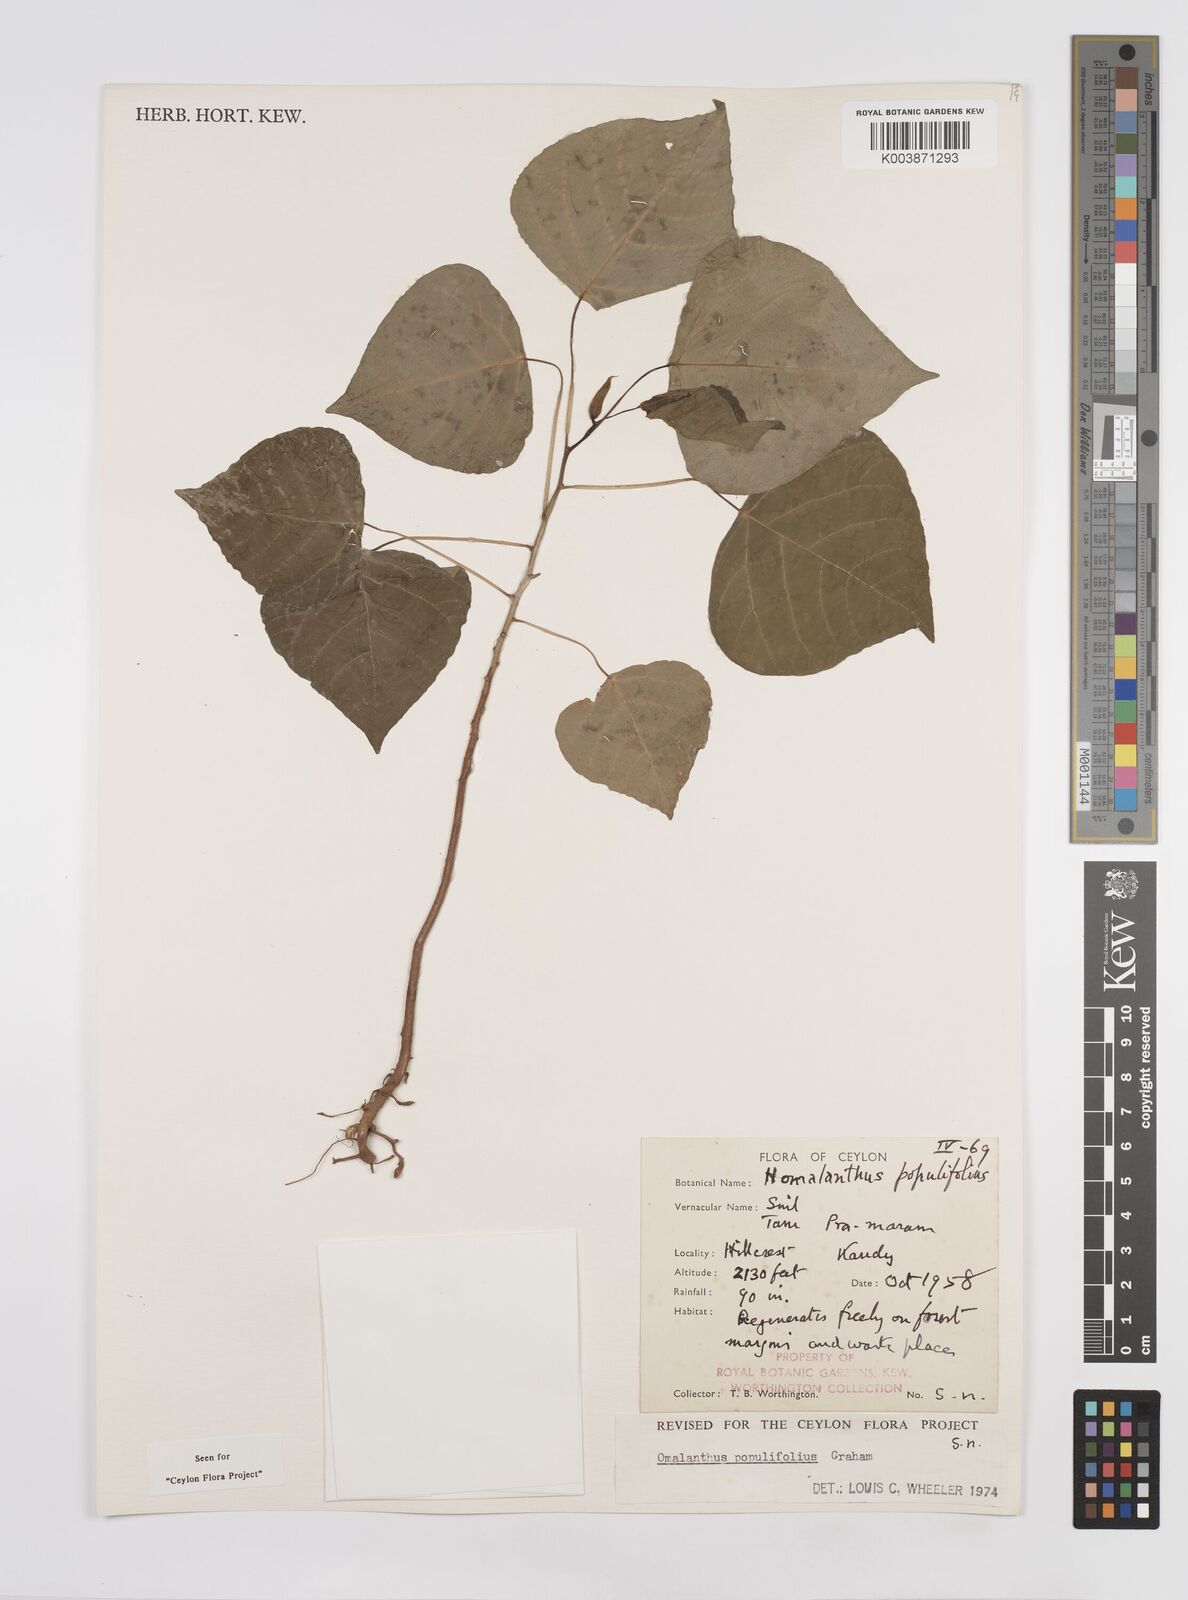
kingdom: Plantae
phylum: Tracheophyta
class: Magnoliopsida
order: Malpighiales
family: Euphorbiaceae
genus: Homalanthus
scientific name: Homalanthus populneus
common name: Spurge
